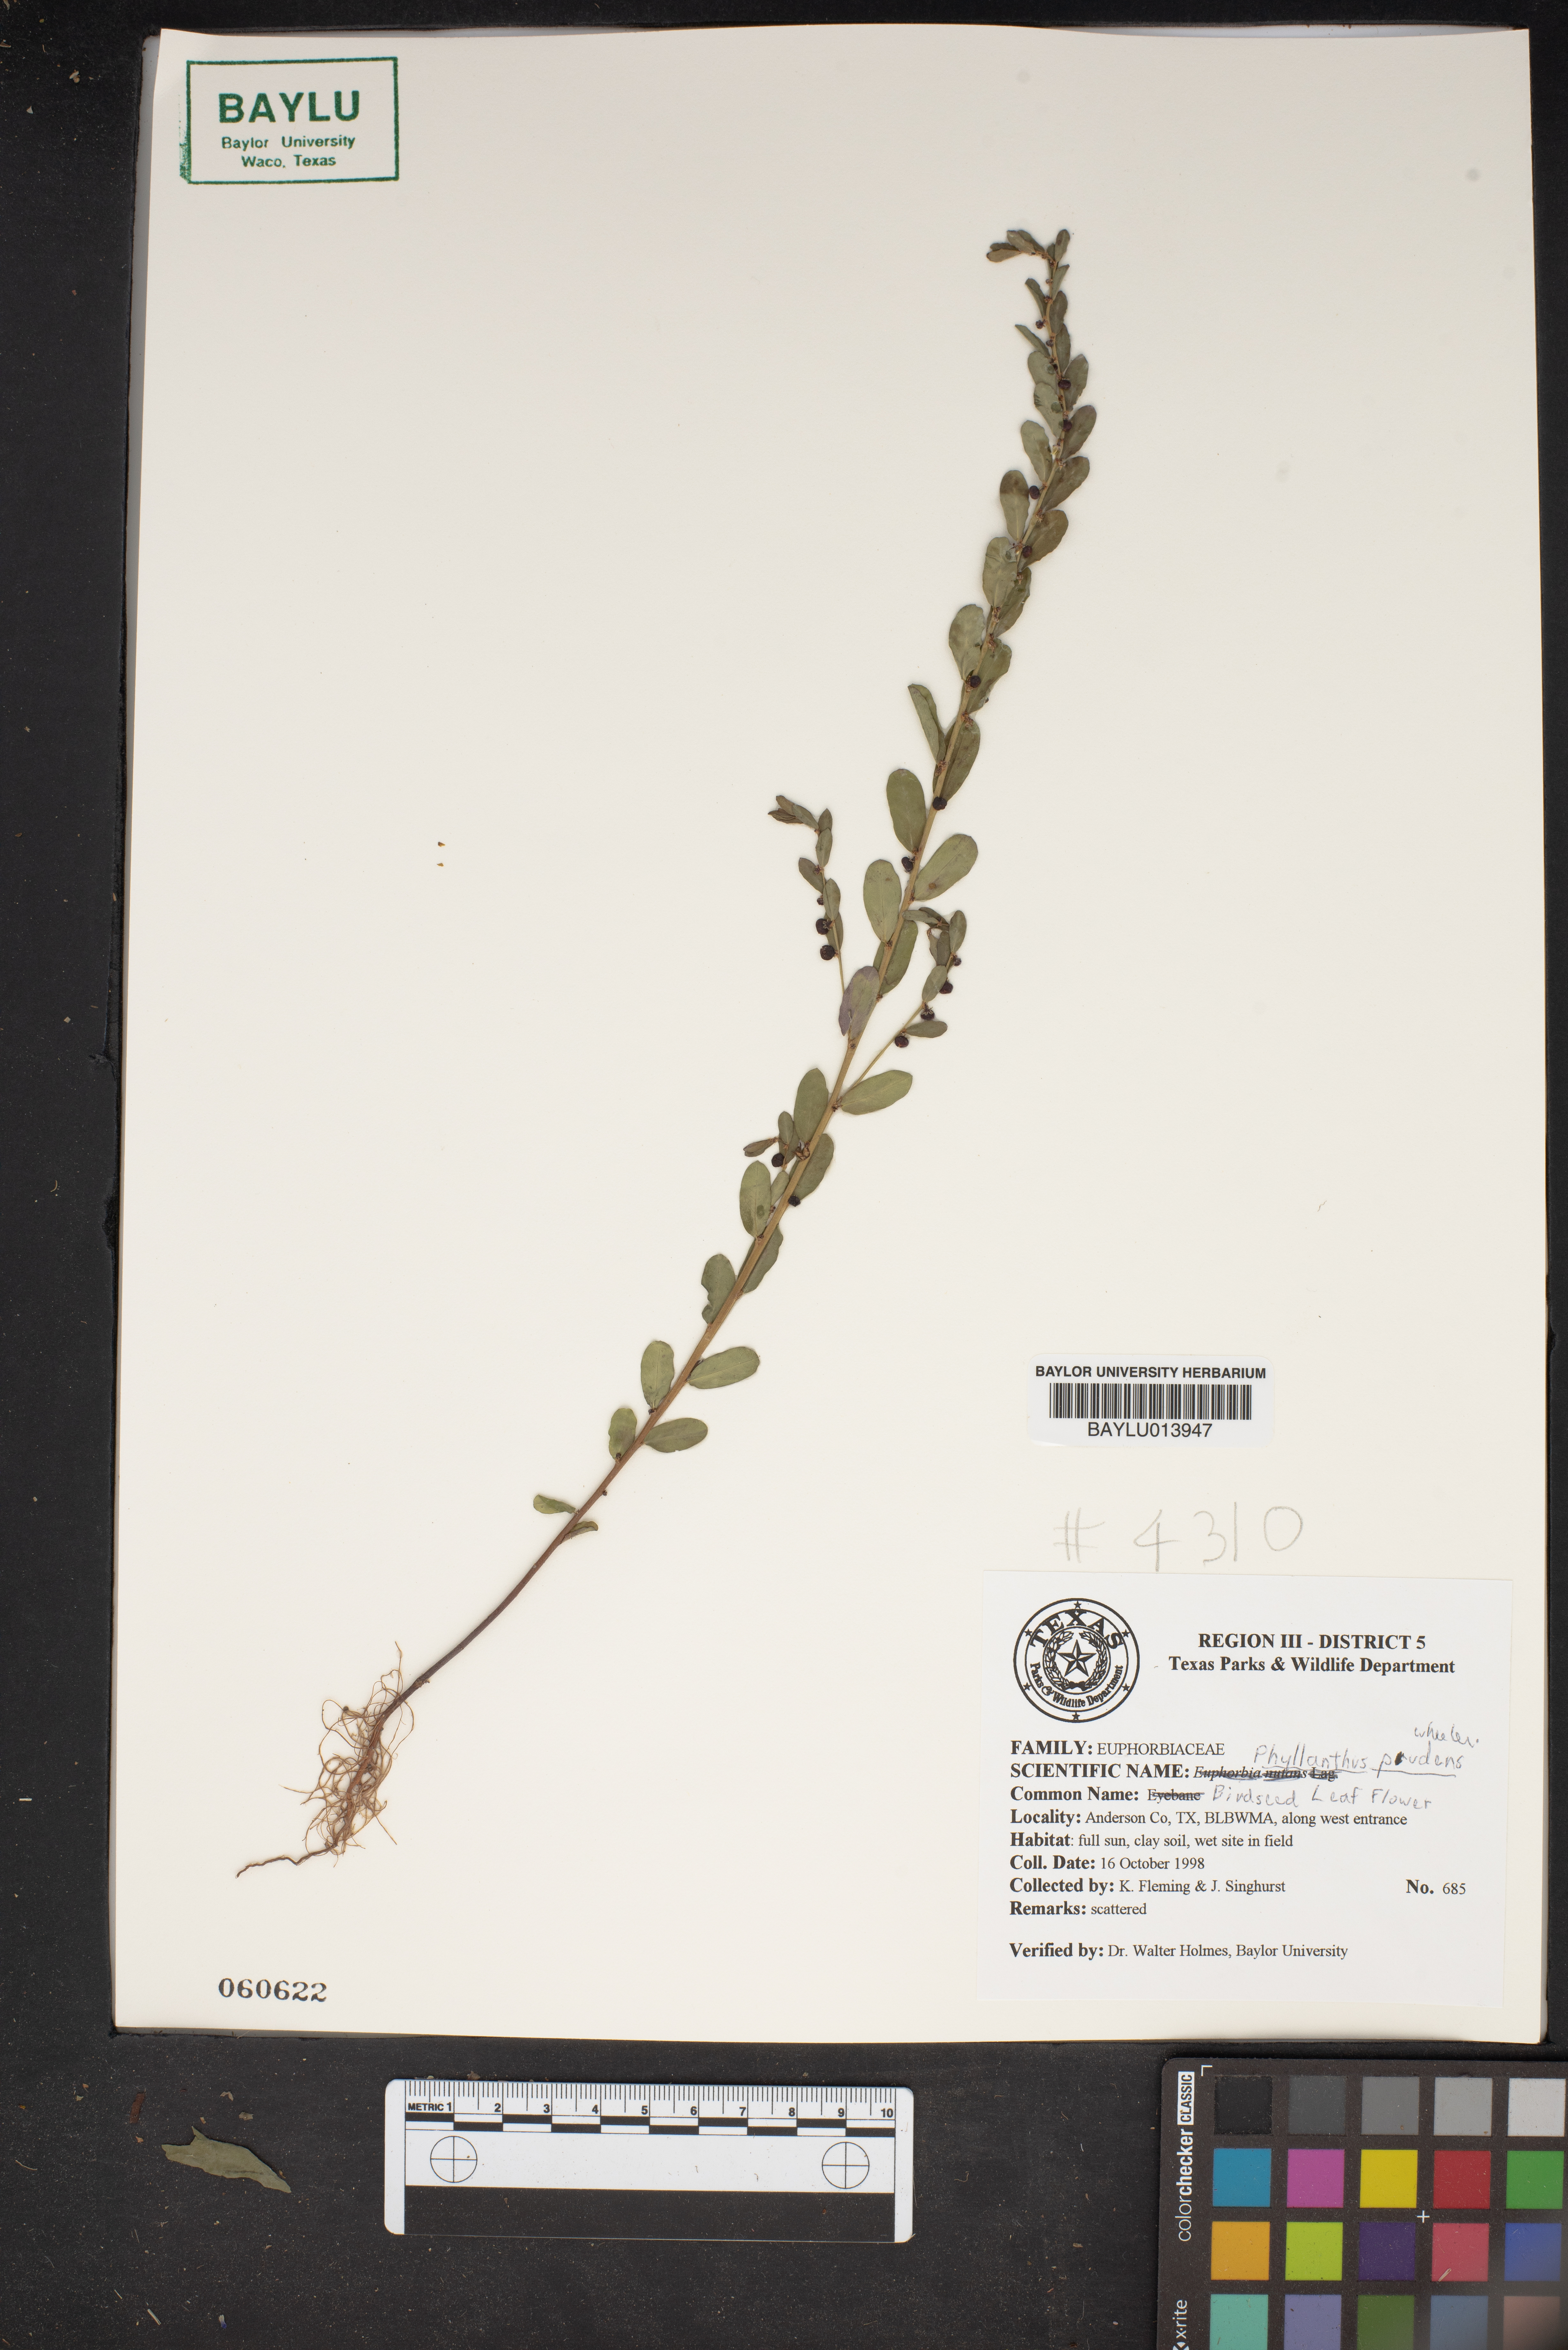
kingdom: Plantae
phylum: Tracheophyta
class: Magnoliopsida
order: Malpighiales
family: Phyllanthaceae
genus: Phyllanthus
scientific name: Phyllanthus evanescens
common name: Birdseed leaf-flower
